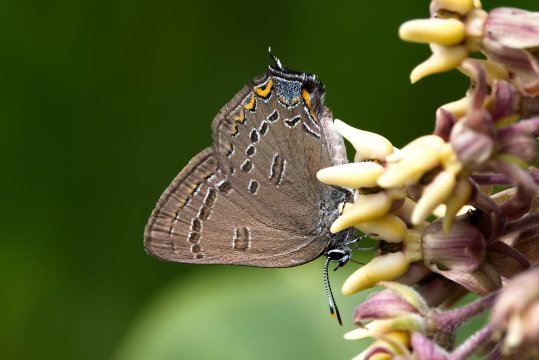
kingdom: Animalia
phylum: Arthropoda
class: Insecta
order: Lepidoptera
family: Lycaenidae
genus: Satyrium
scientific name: Satyrium edwardsii
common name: Edwards' Hairstreak
